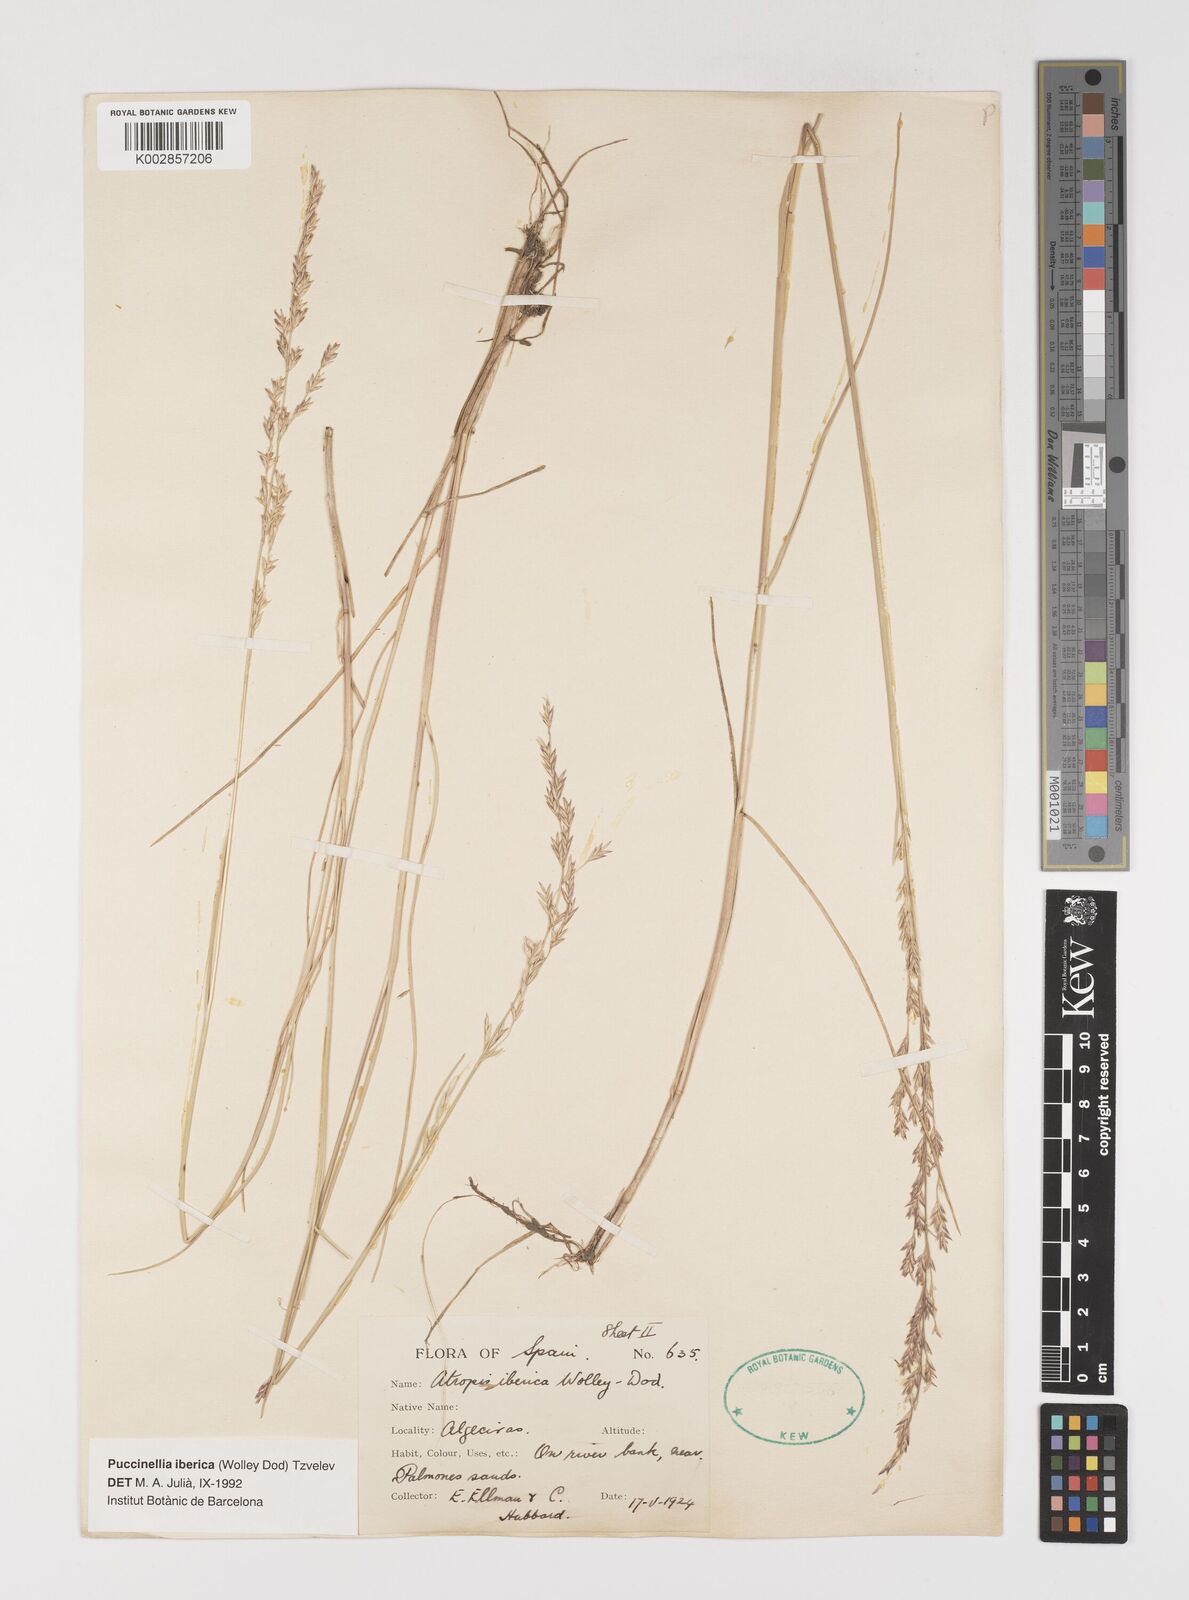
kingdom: Plantae
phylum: Tracheophyta
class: Liliopsida
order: Poales
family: Poaceae
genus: Puccinellia
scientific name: Puccinellia iberica
